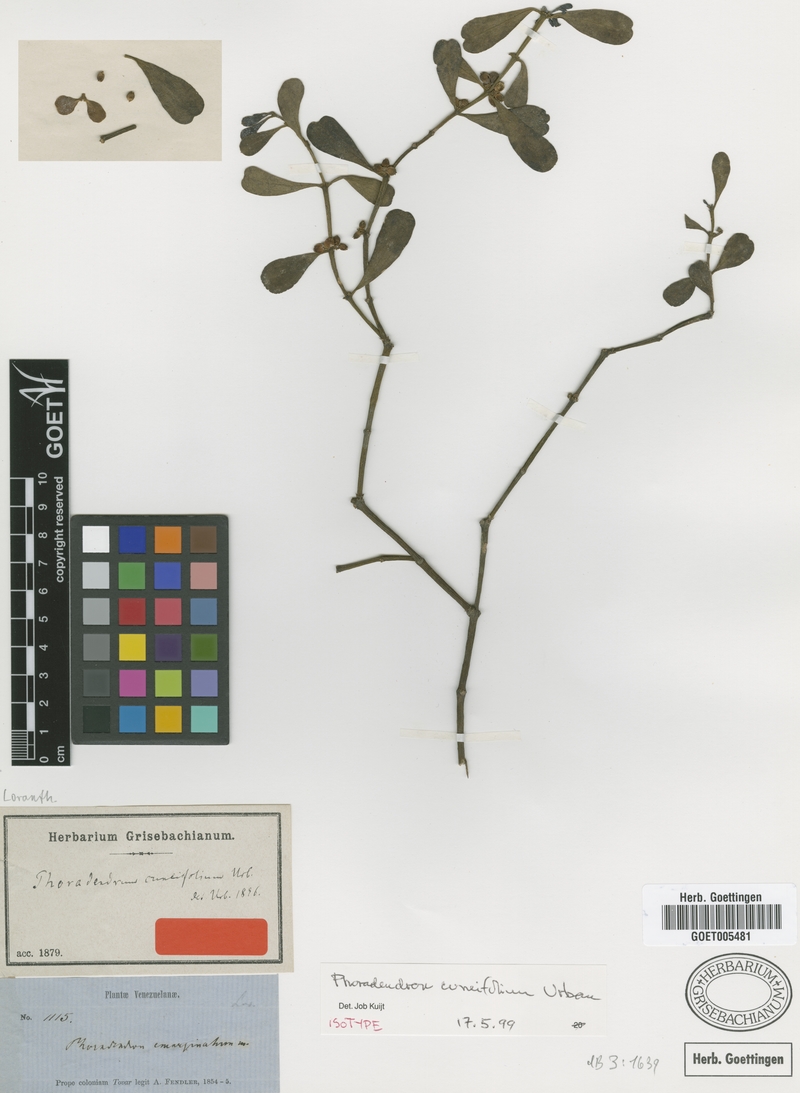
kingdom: Plantae
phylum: Tracheophyta
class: Magnoliopsida
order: Santalales
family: Viscaceae
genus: Phoradendron
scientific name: Phoradendron cuneifolium
